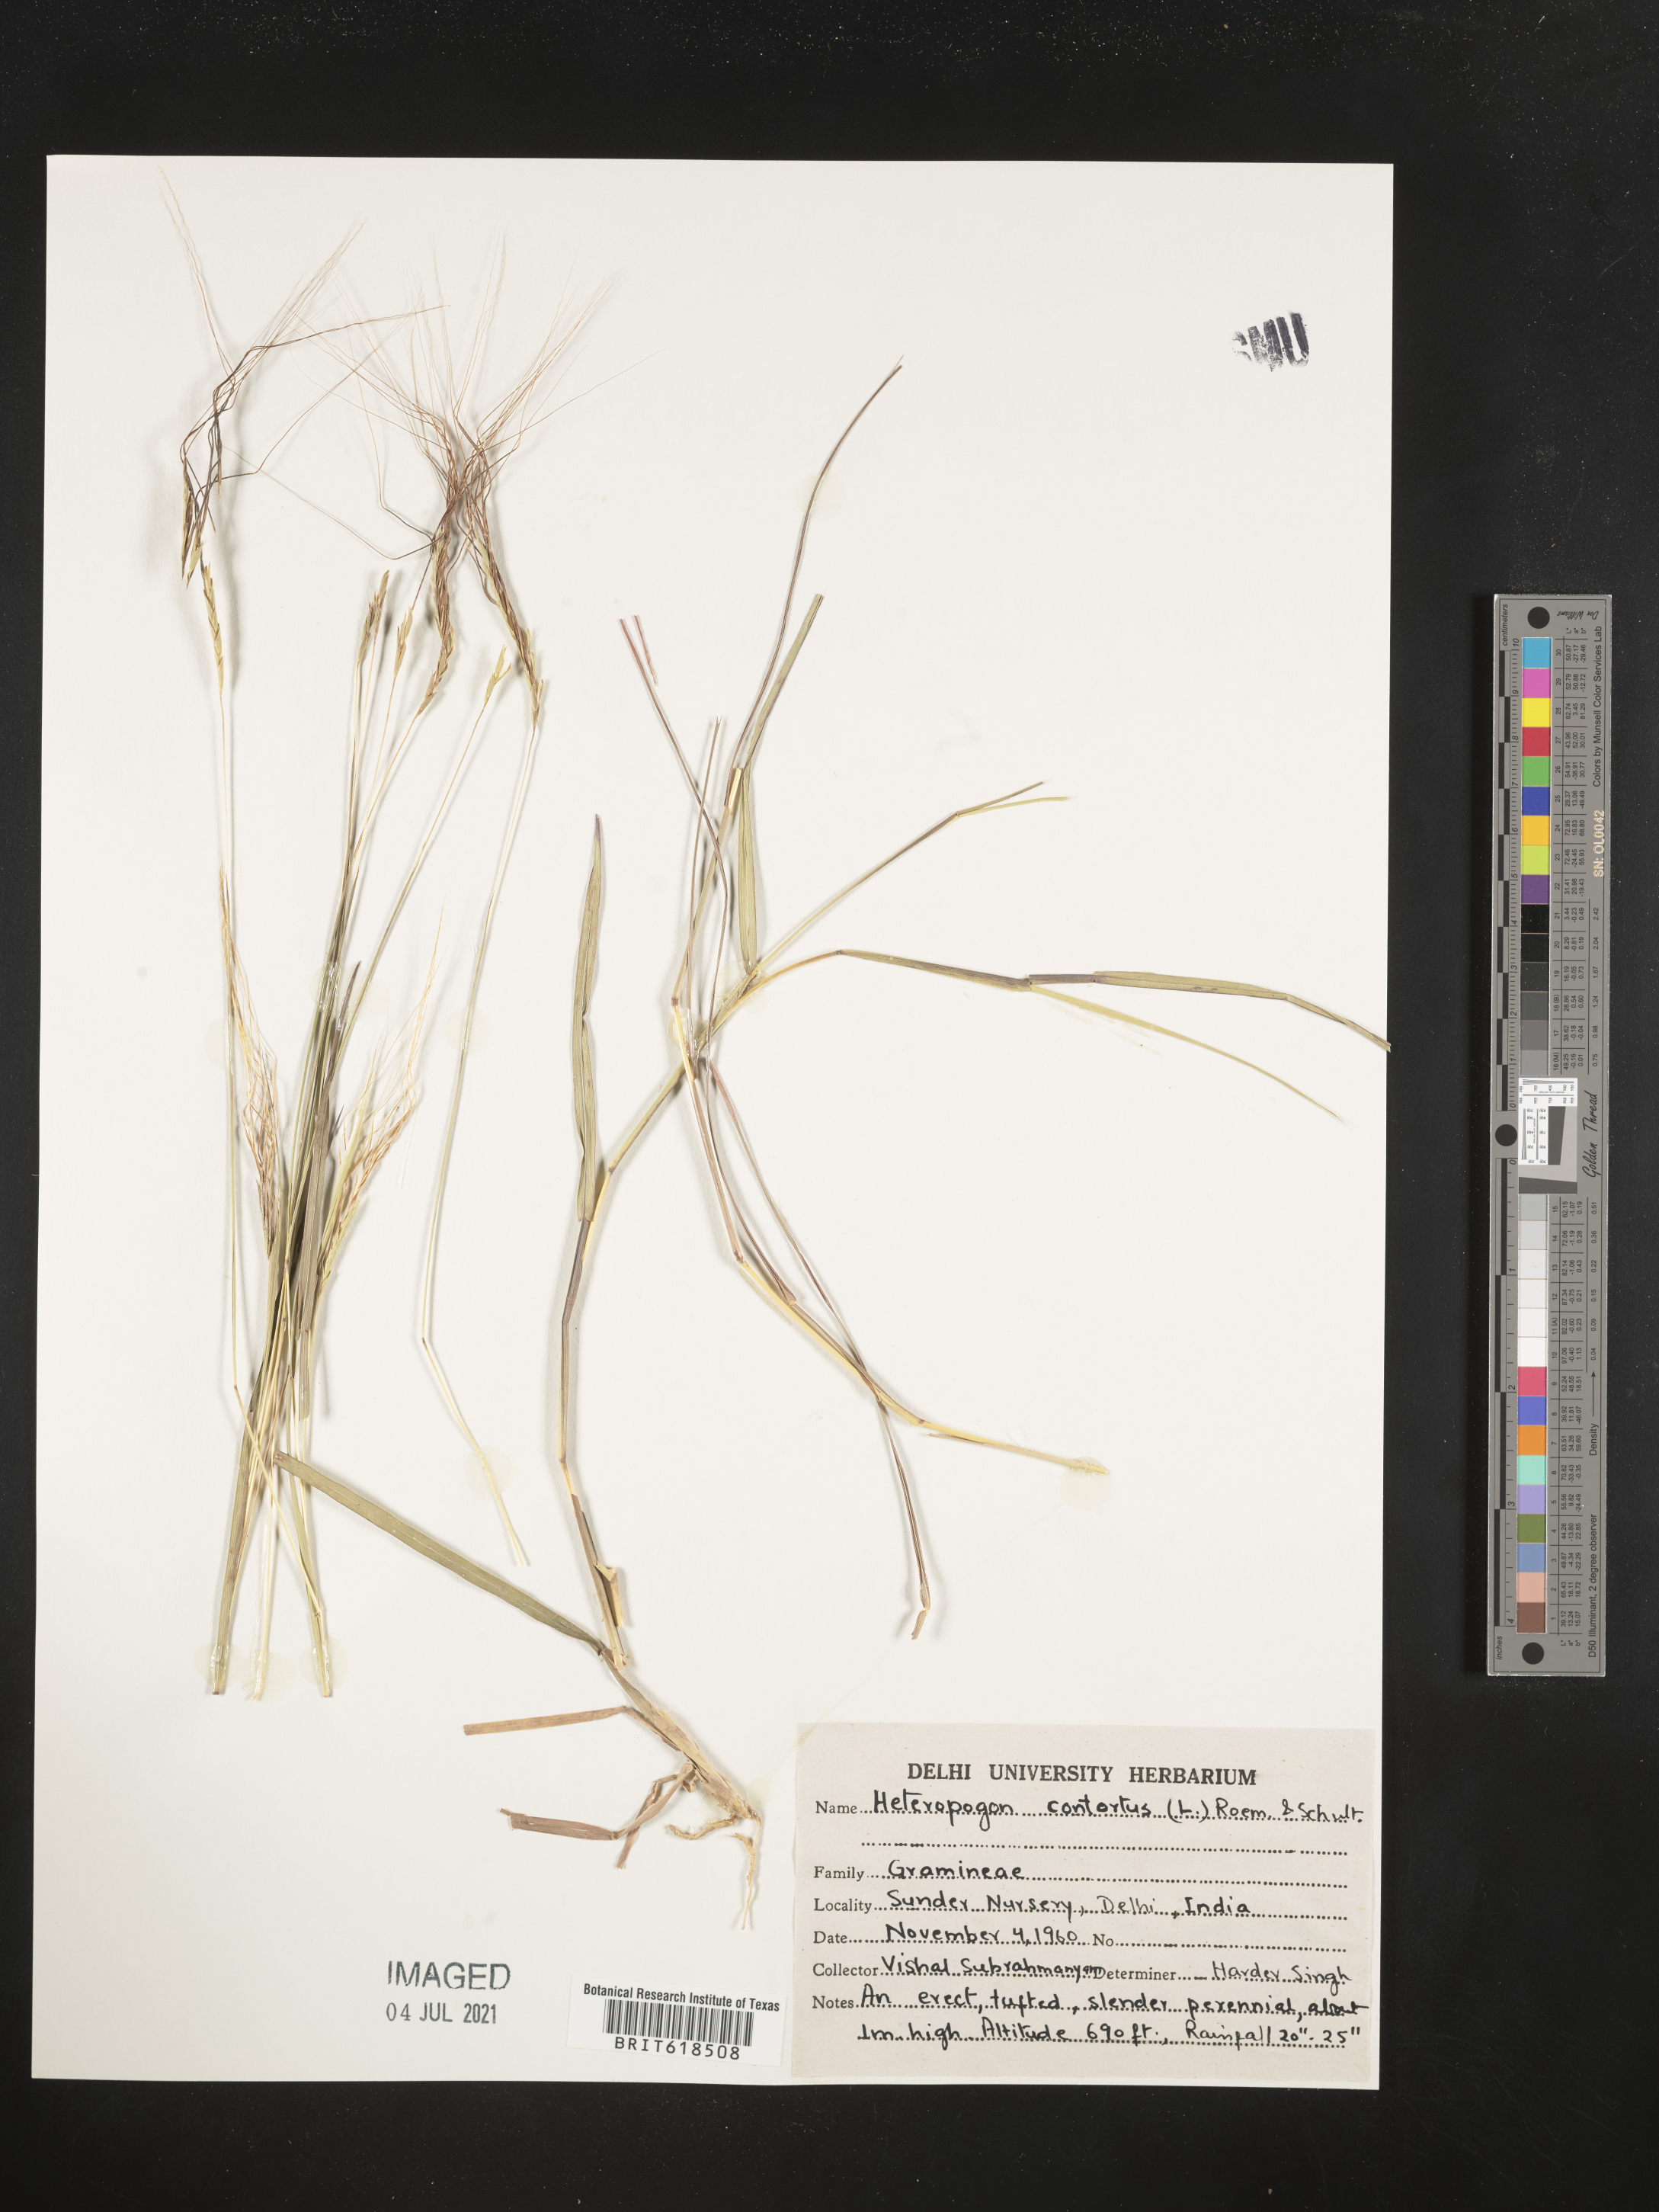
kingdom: Plantae
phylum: Tracheophyta
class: Liliopsida
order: Poales
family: Poaceae
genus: Heteropogon
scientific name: Heteropogon contortus
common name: Tanglehead
